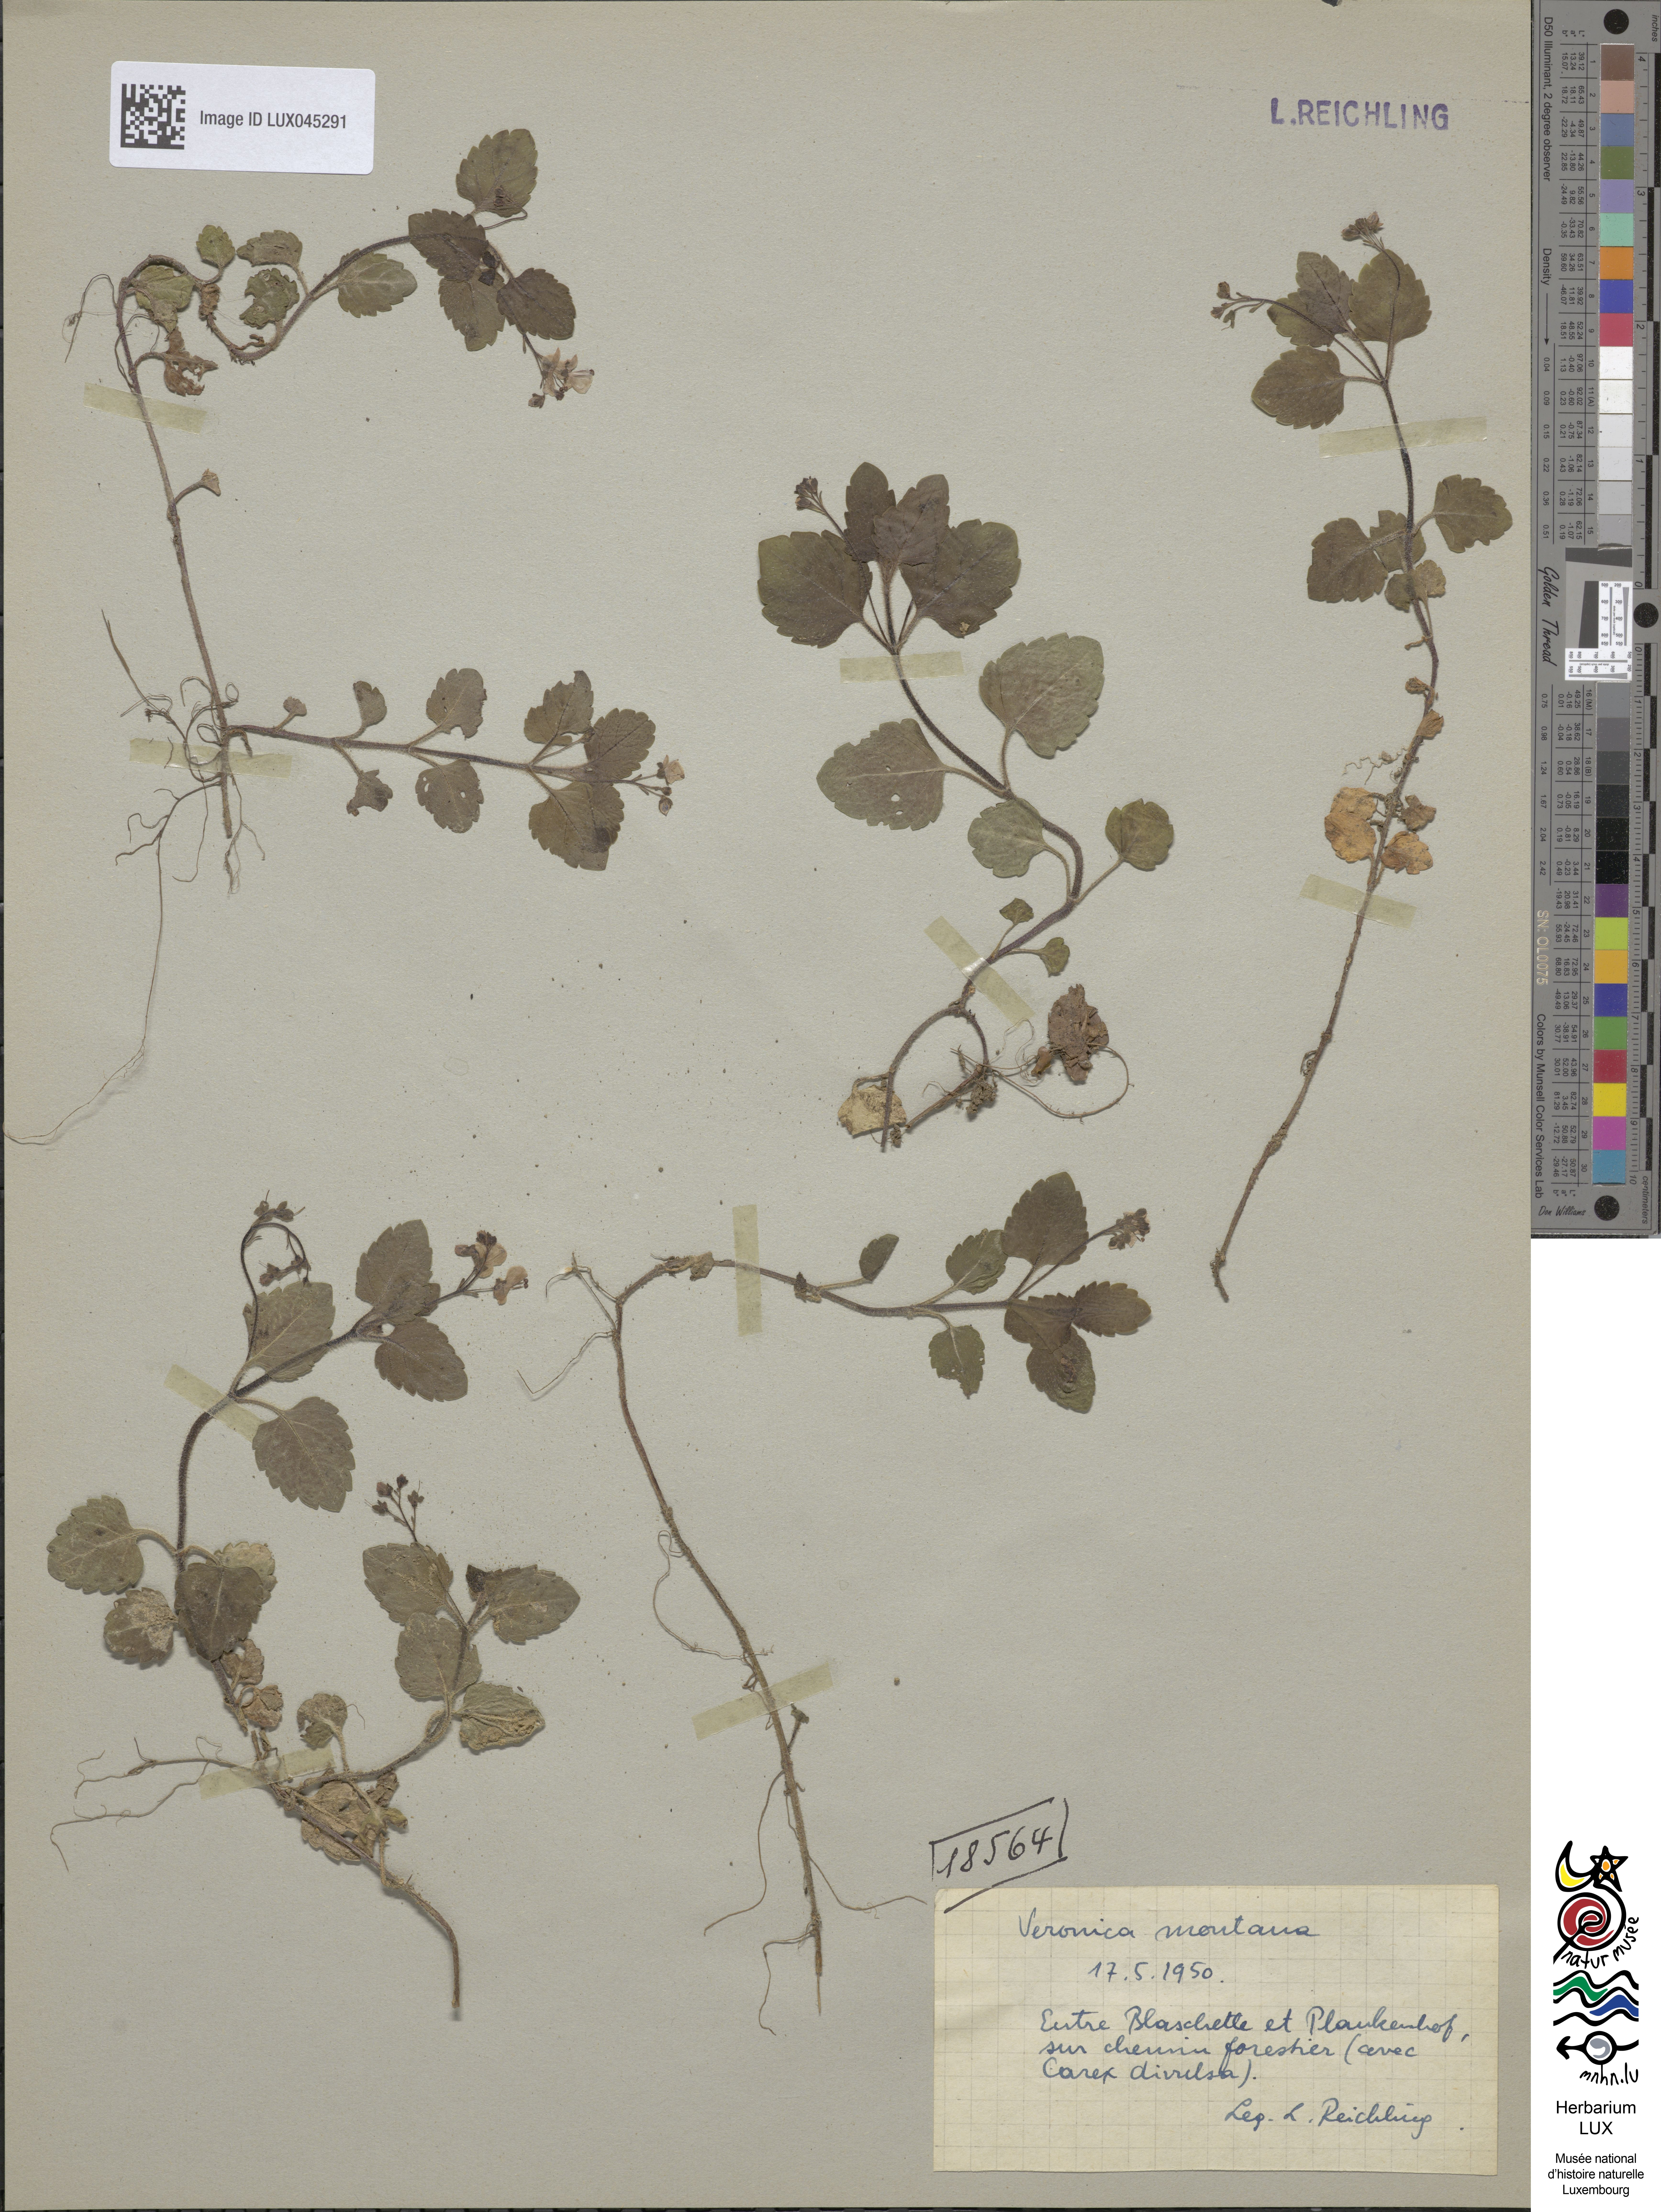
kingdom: Plantae
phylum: Tracheophyta
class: Magnoliopsida
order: Lamiales
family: Plantaginaceae
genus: Veronica
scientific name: Veronica montana
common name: Wood speedwell
